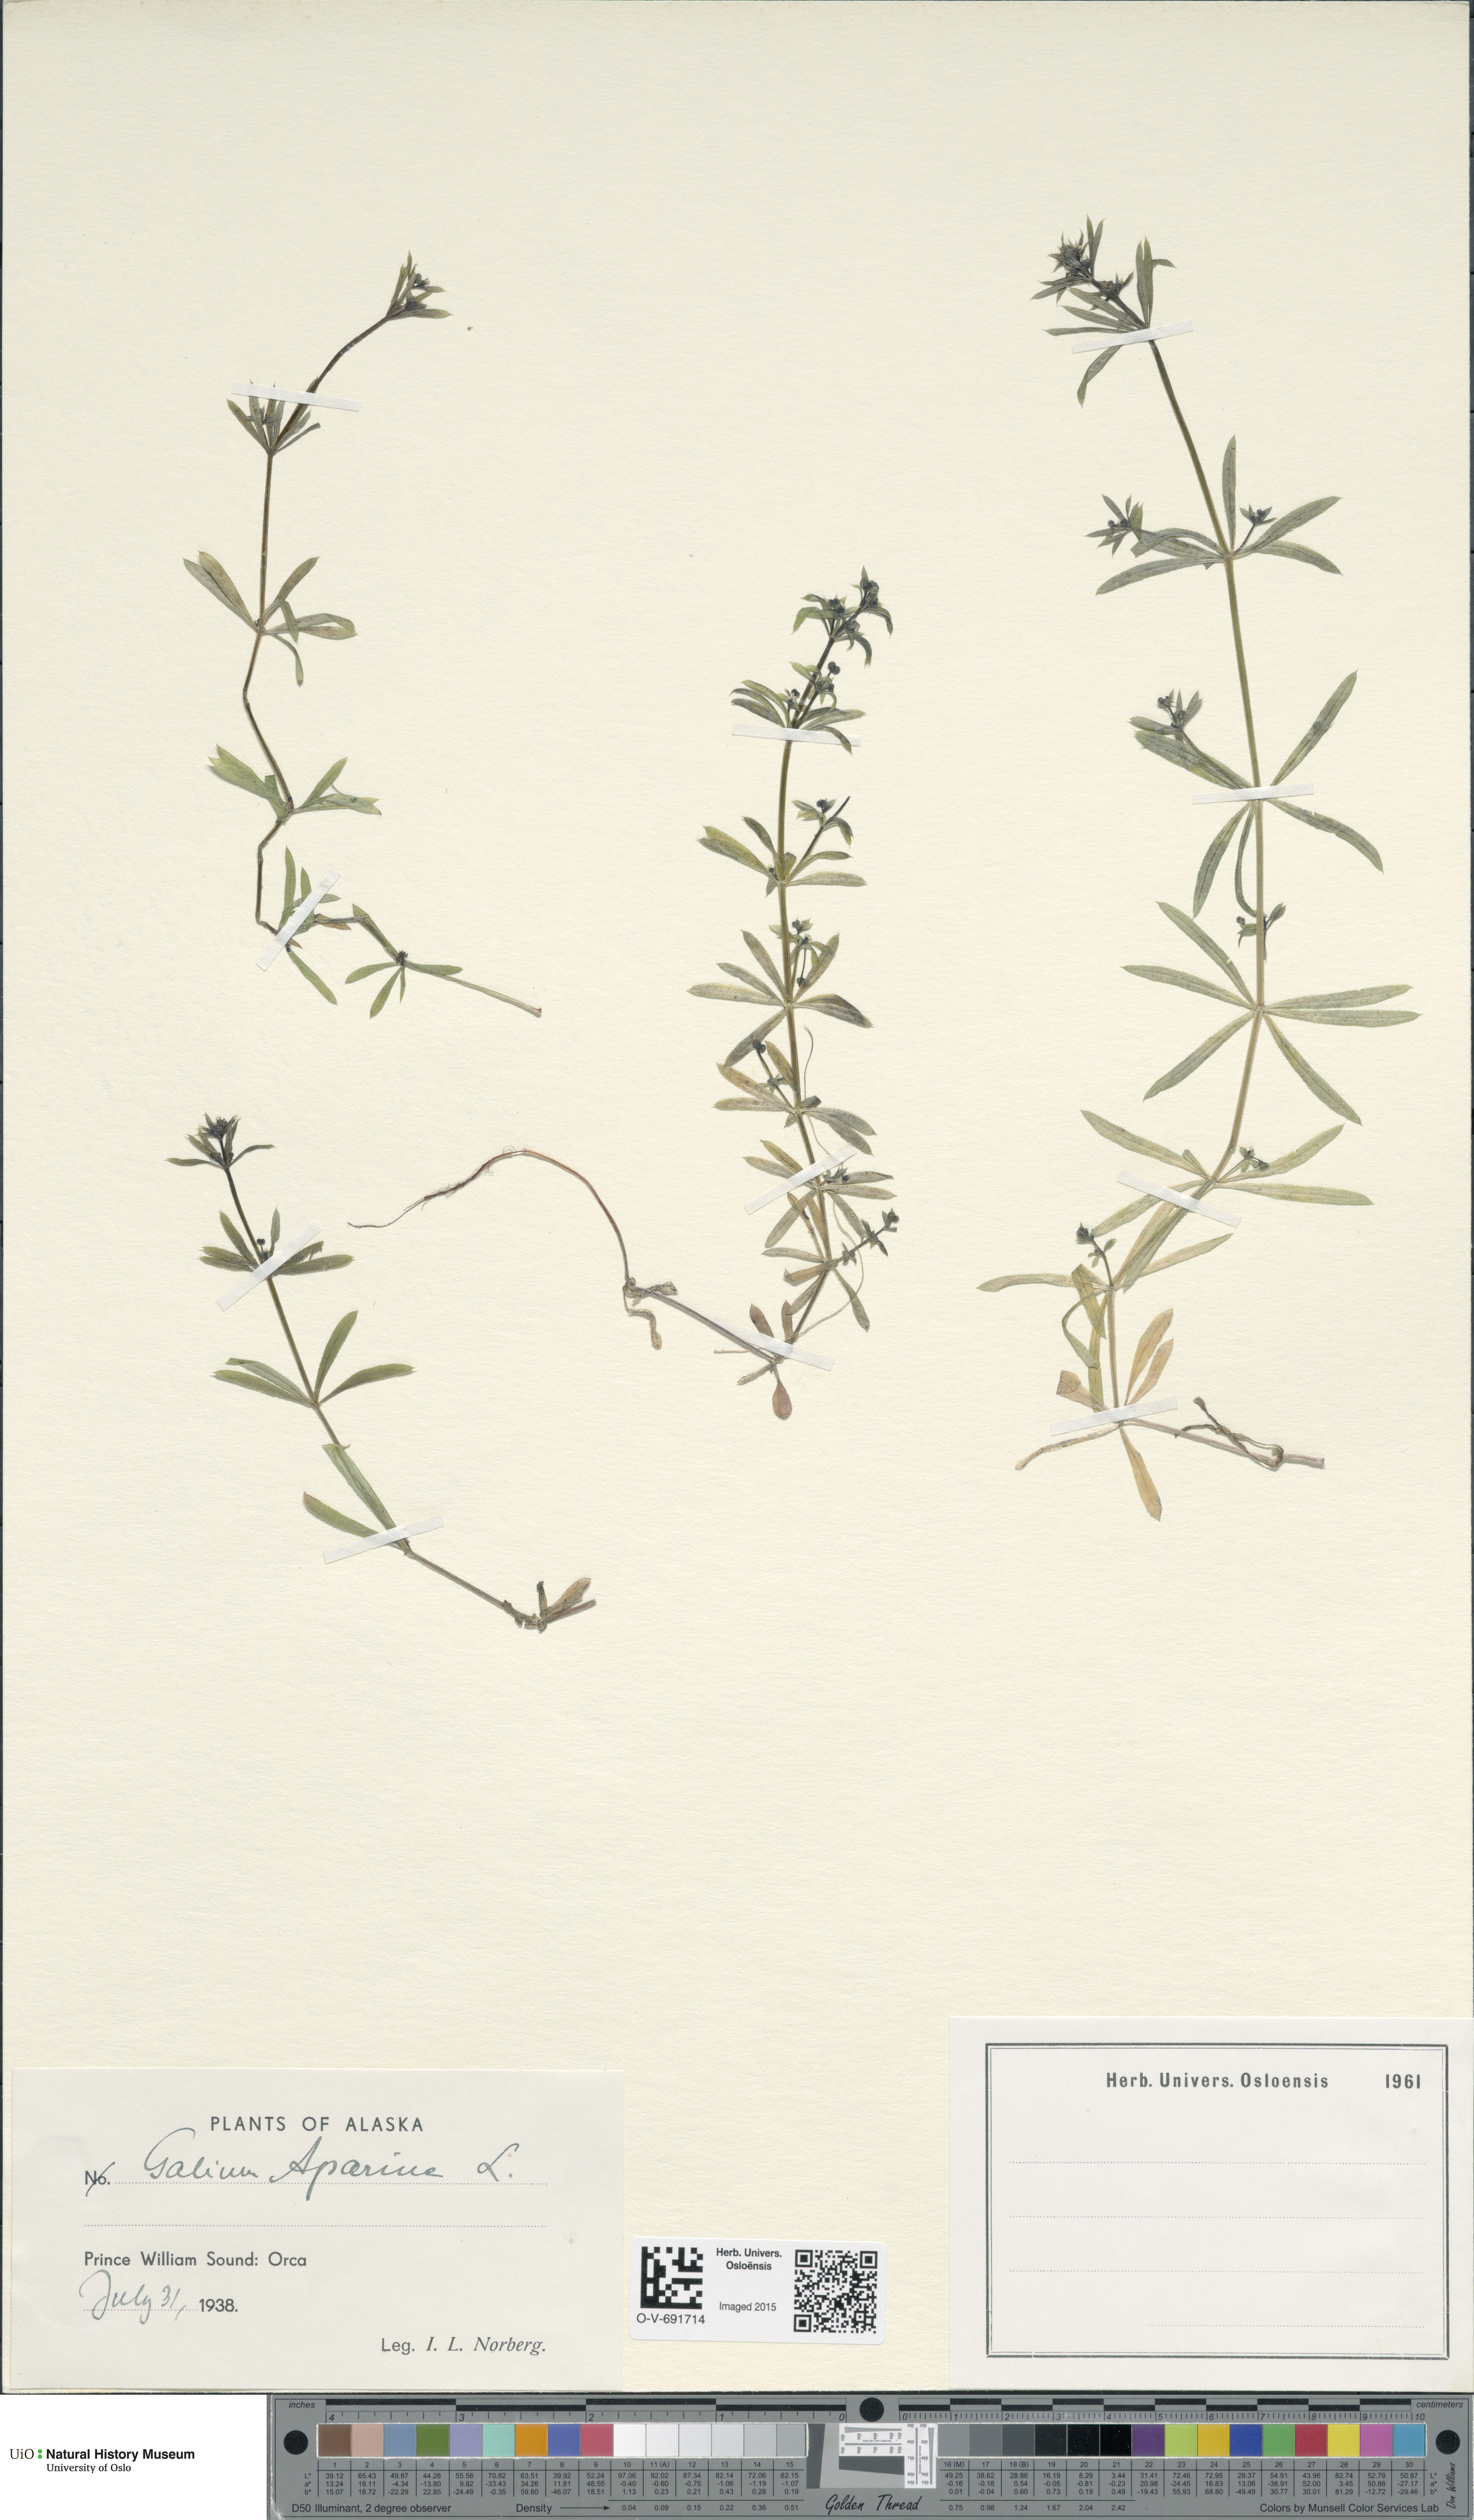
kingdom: Plantae
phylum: Tracheophyta
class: Magnoliopsida
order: Gentianales
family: Rubiaceae
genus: Galium
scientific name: Galium aparine
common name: Cleavers
